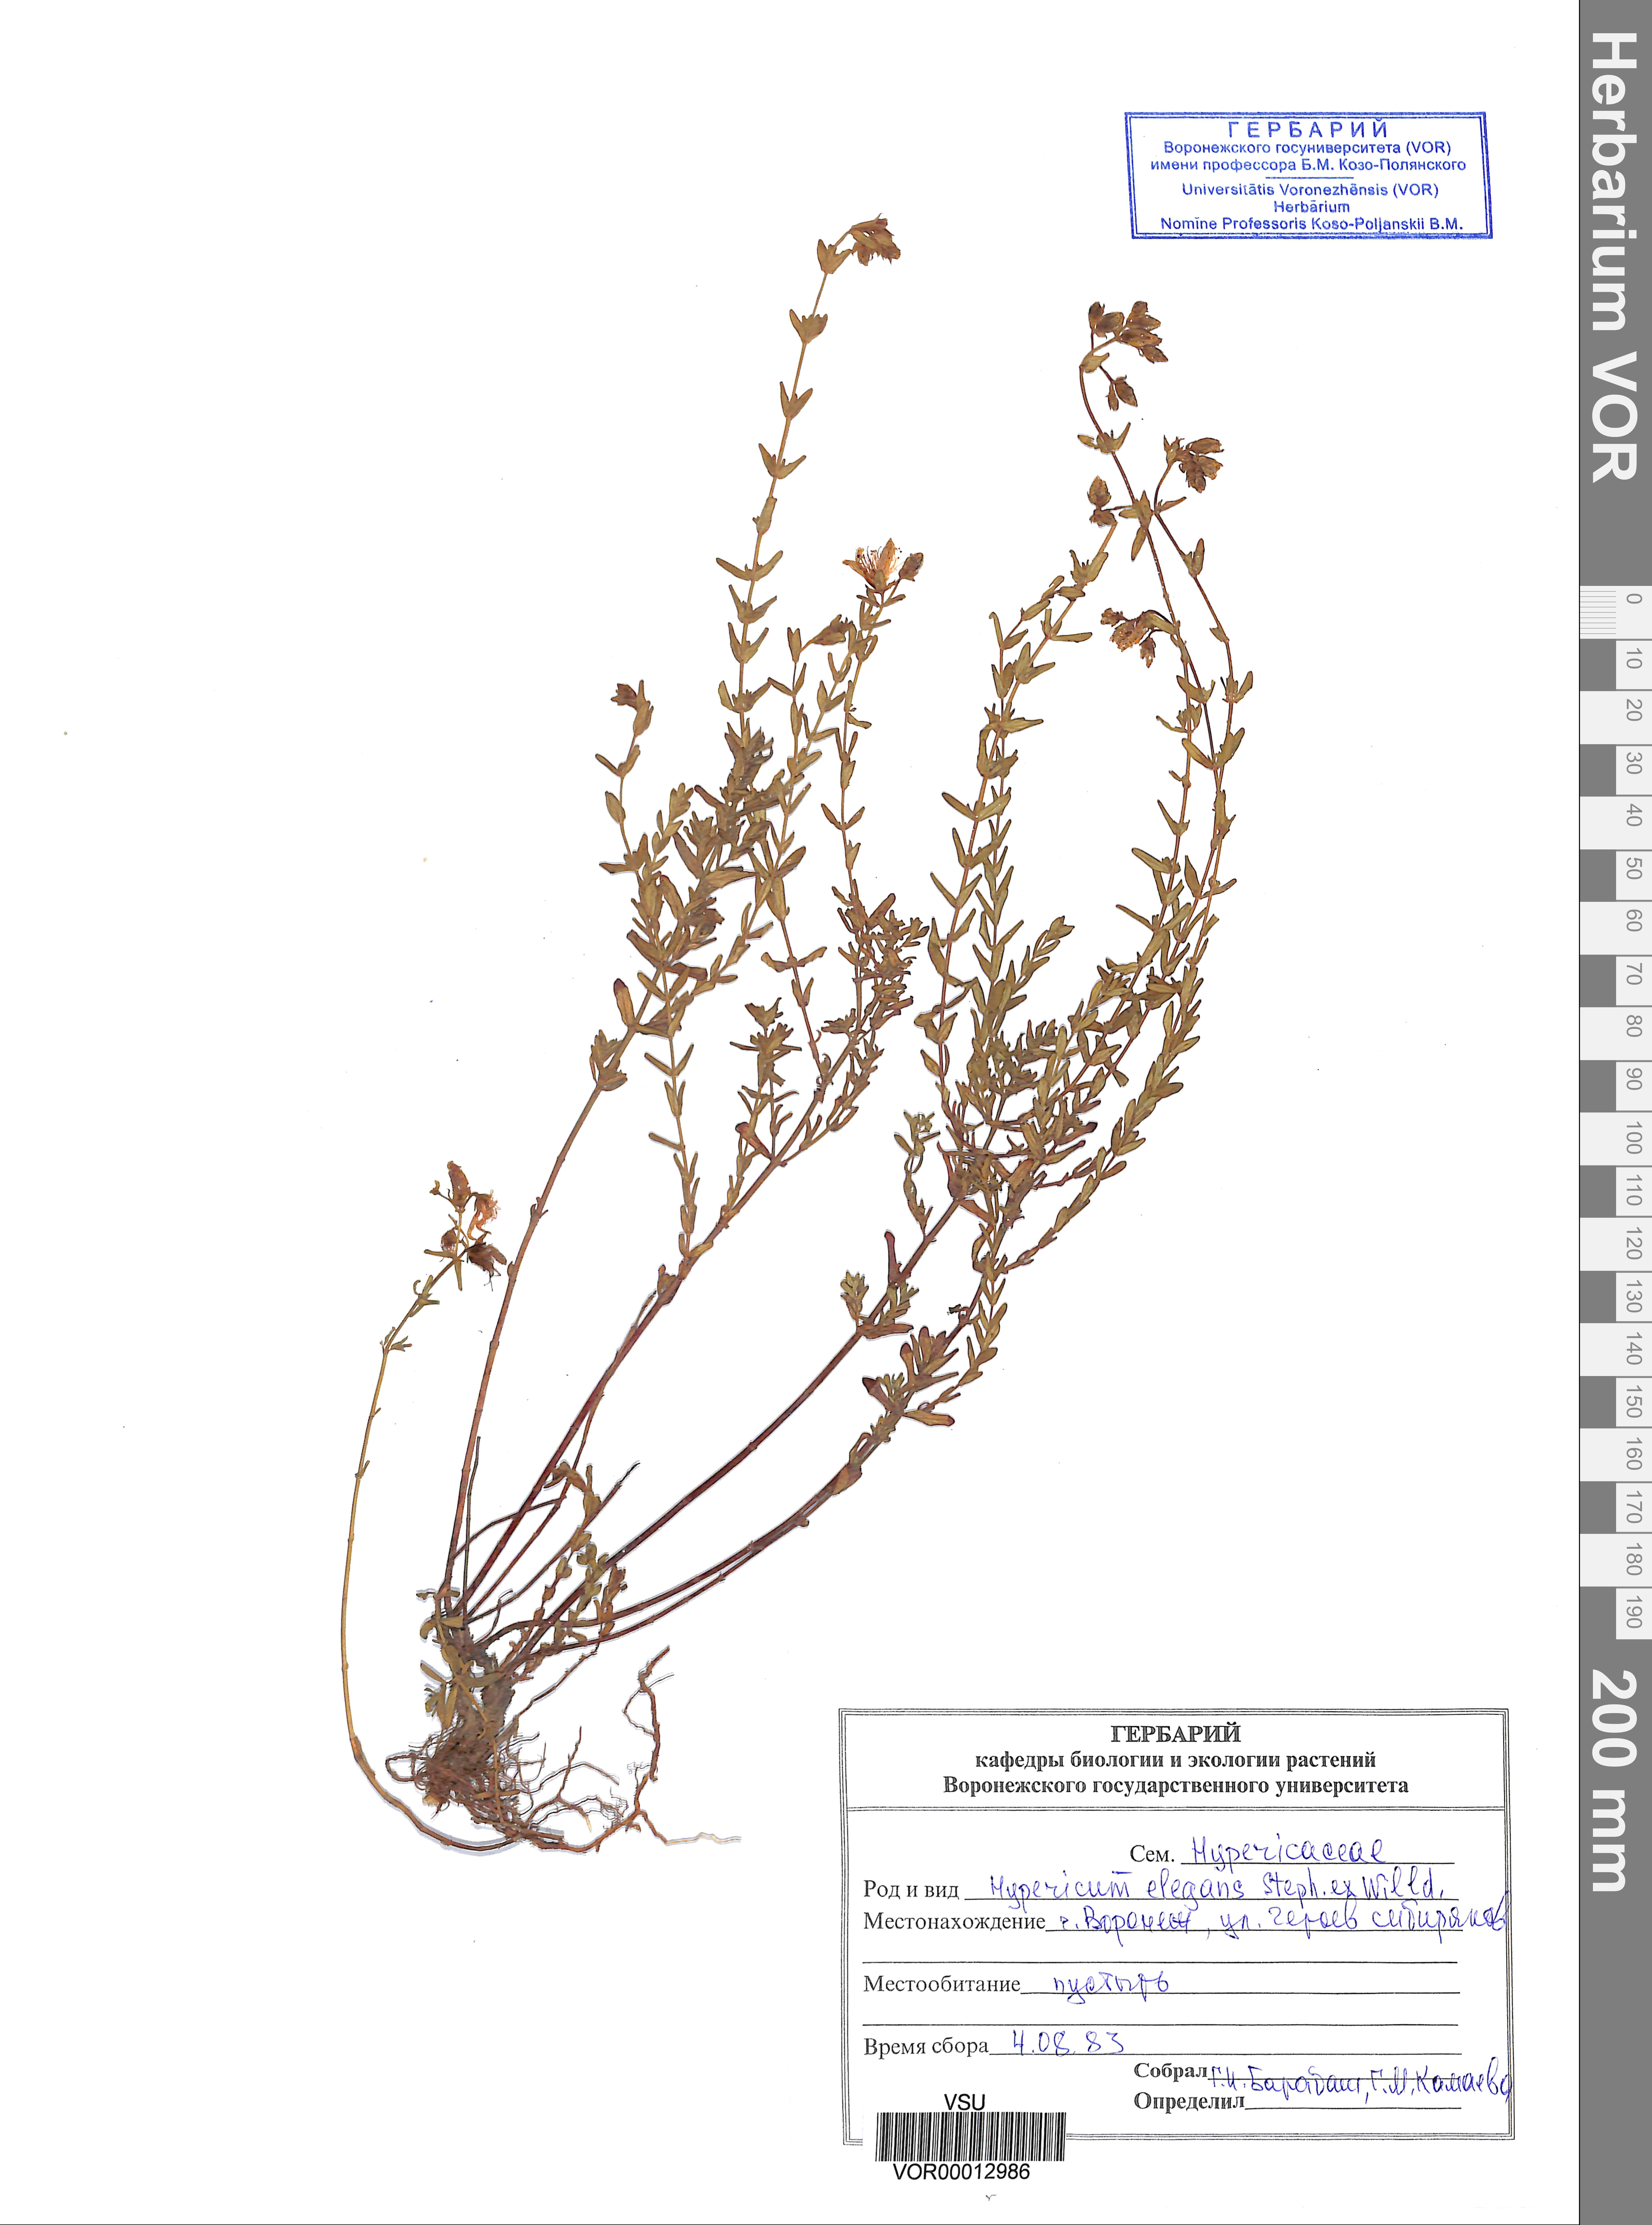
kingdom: Plantae
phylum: Tracheophyta
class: Magnoliopsida
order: Malpighiales
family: Hypericaceae
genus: Hypericum
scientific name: Hypericum elegans
